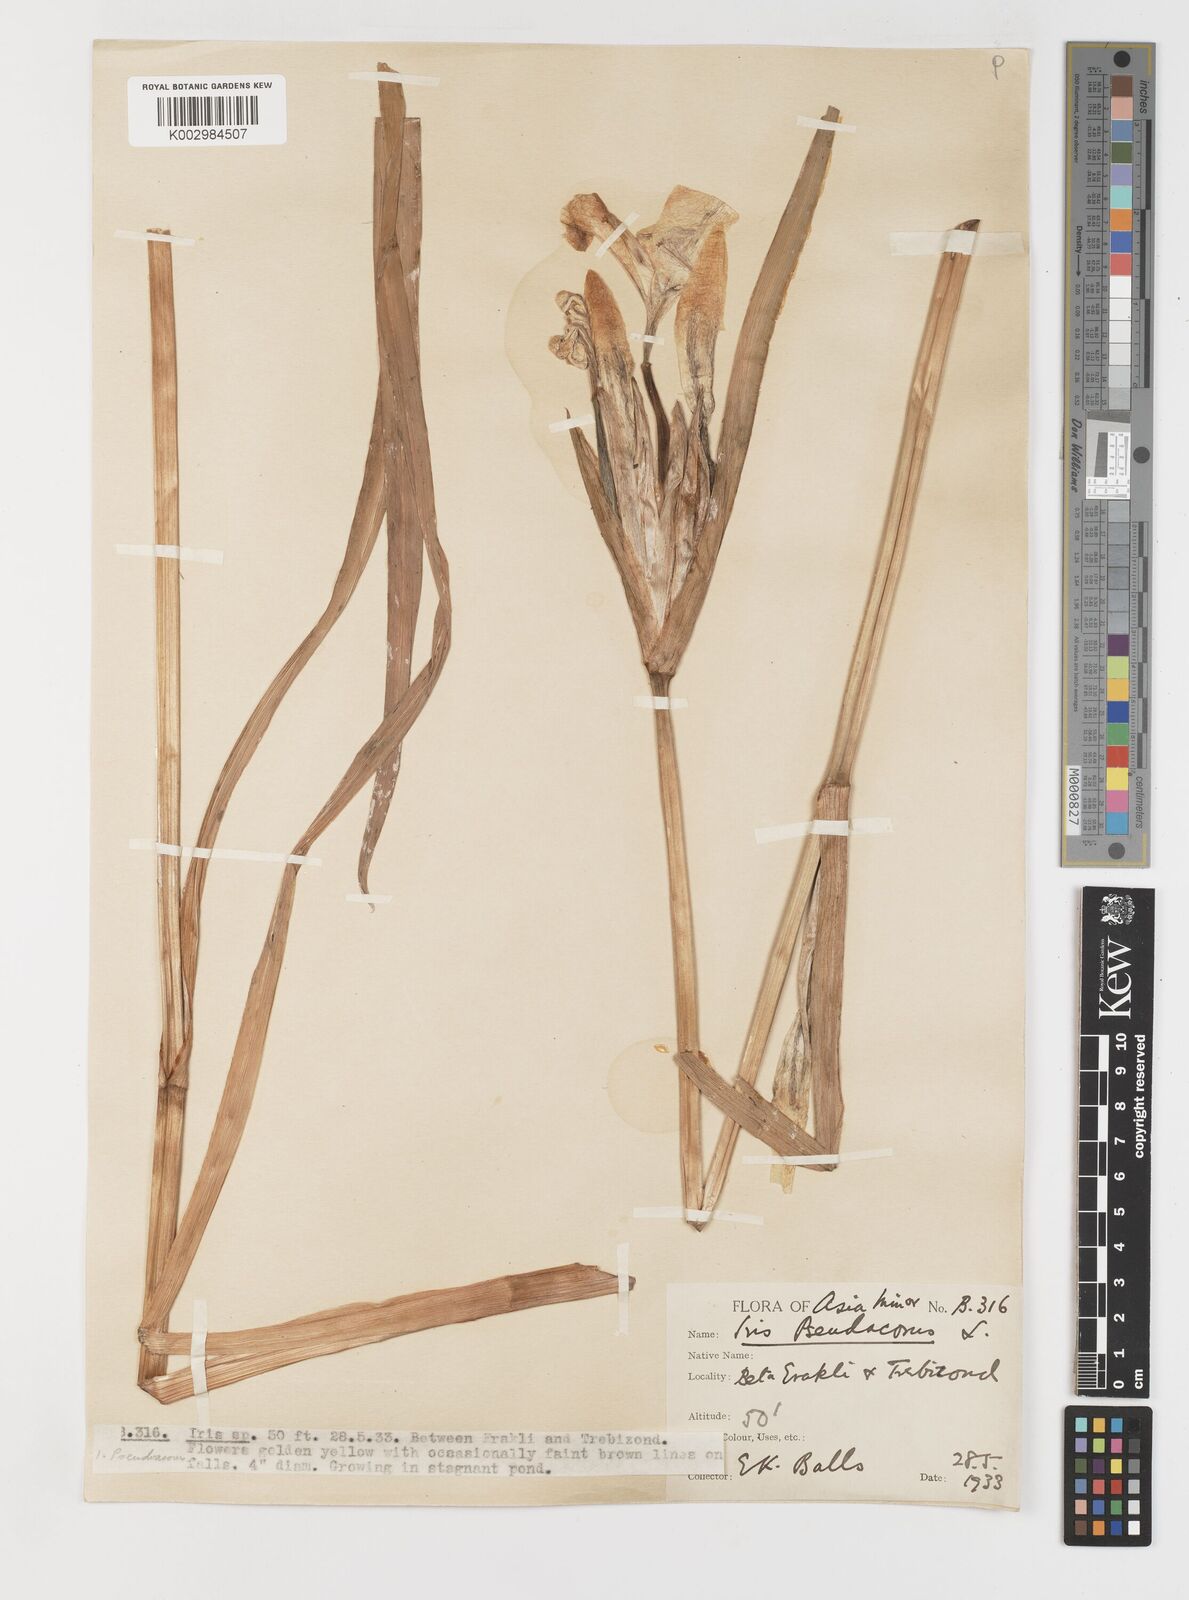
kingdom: Plantae
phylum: Tracheophyta
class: Liliopsida
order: Asparagales
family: Iridaceae
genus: Iris
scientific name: Iris pseudacorus
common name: Yellow flag
